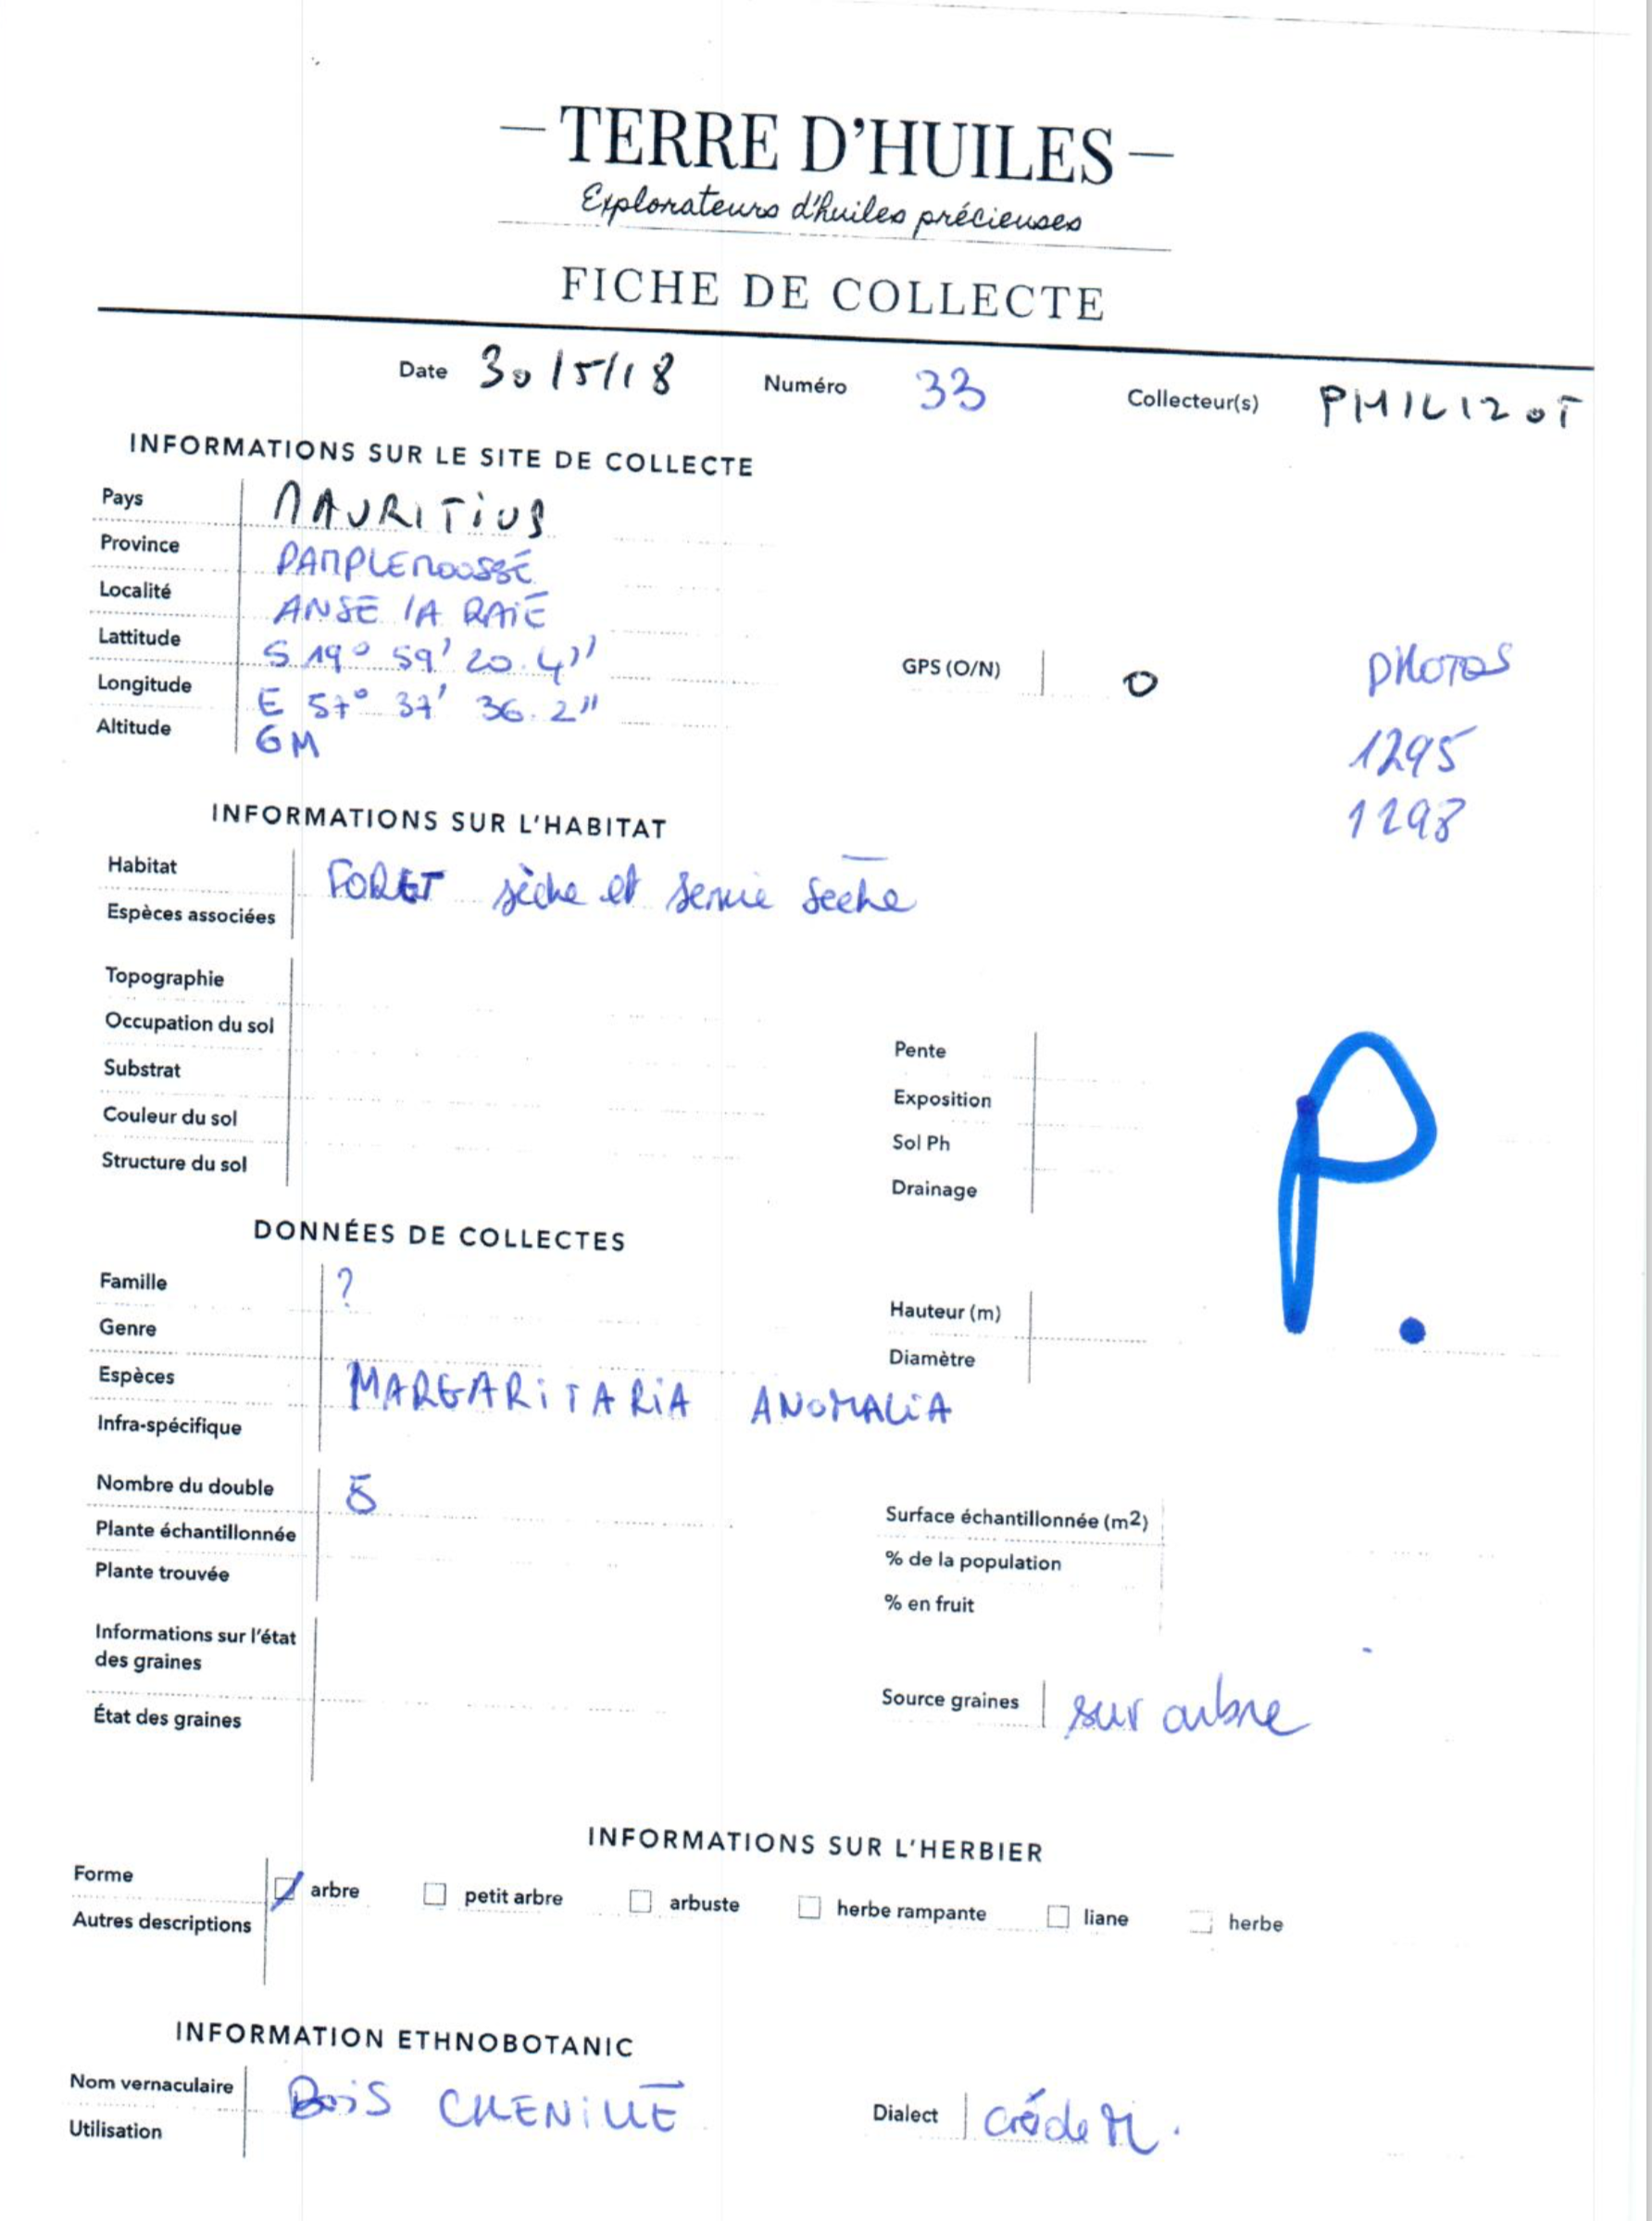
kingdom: Plantae
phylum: Tracheophyta
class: Magnoliopsida
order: Malpighiales
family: Phyllanthaceae
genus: Margaritaria
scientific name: Margaritaria anomala
